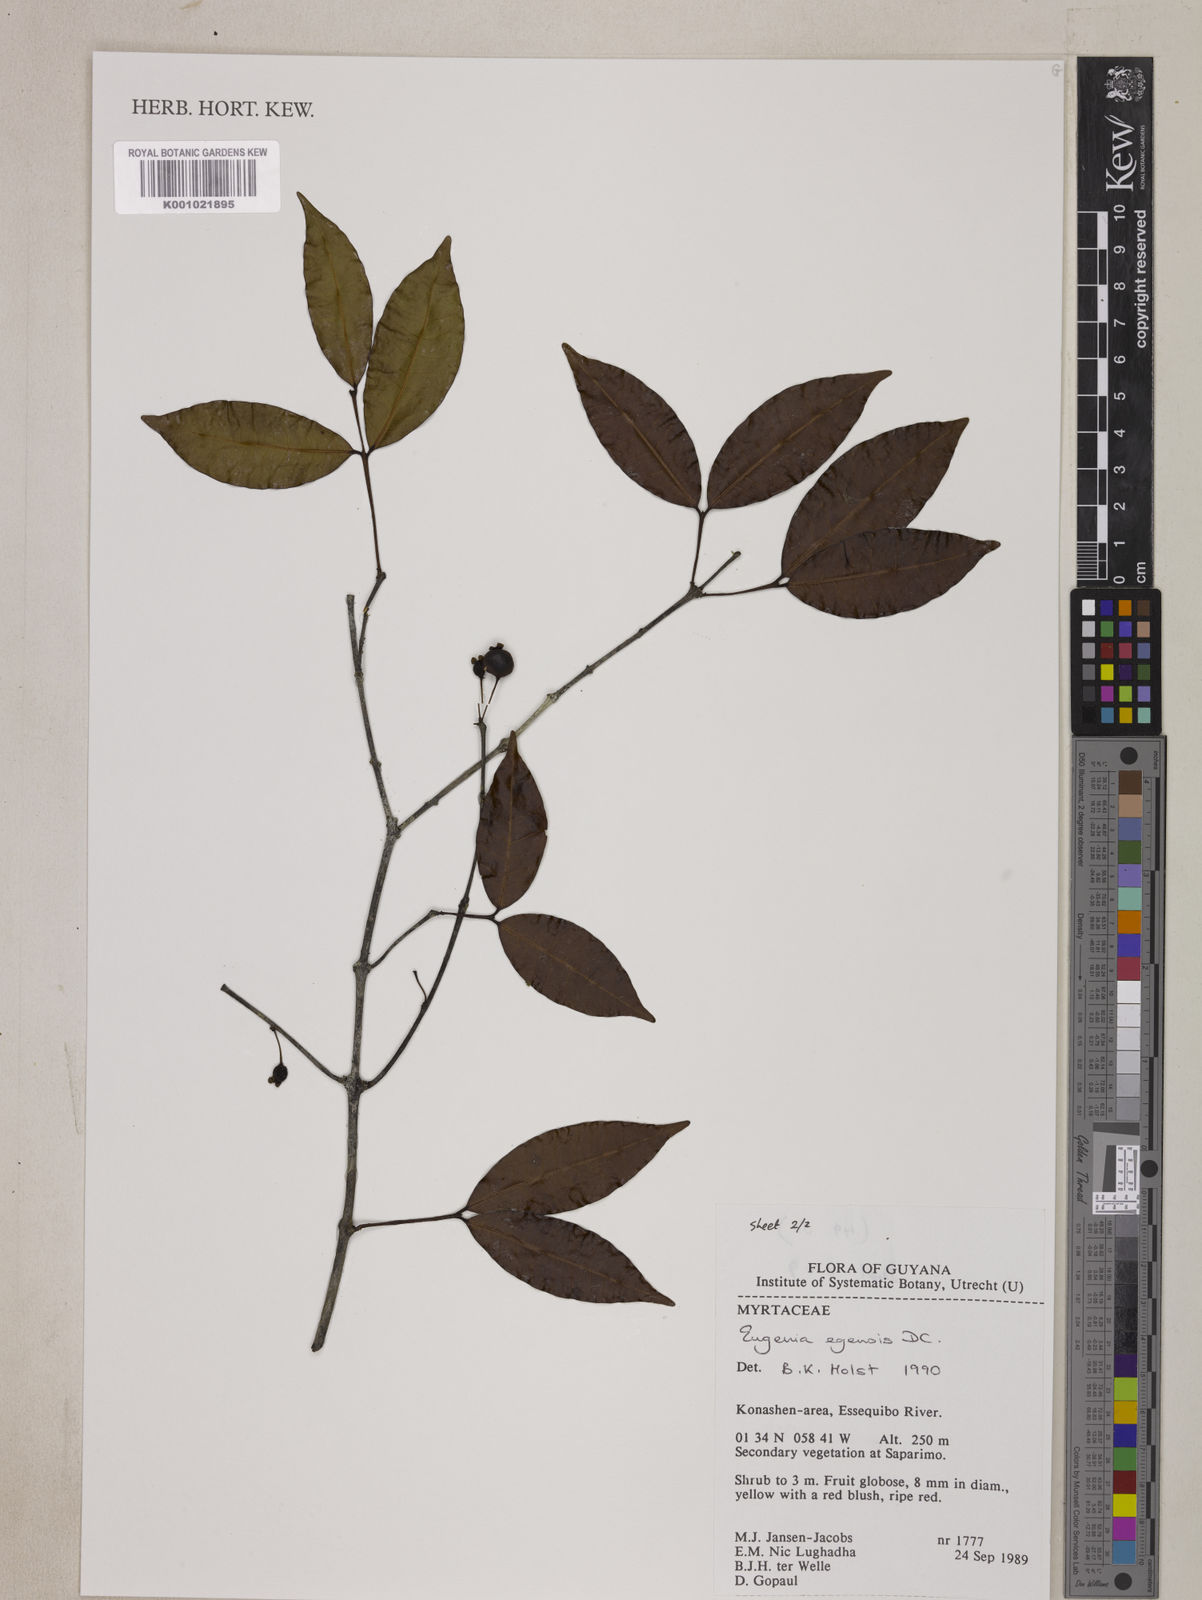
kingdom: Plantae
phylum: Tracheophyta
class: Magnoliopsida
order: Myrtales
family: Myrtaceae
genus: Eugenia
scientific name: Eugenia egensis
